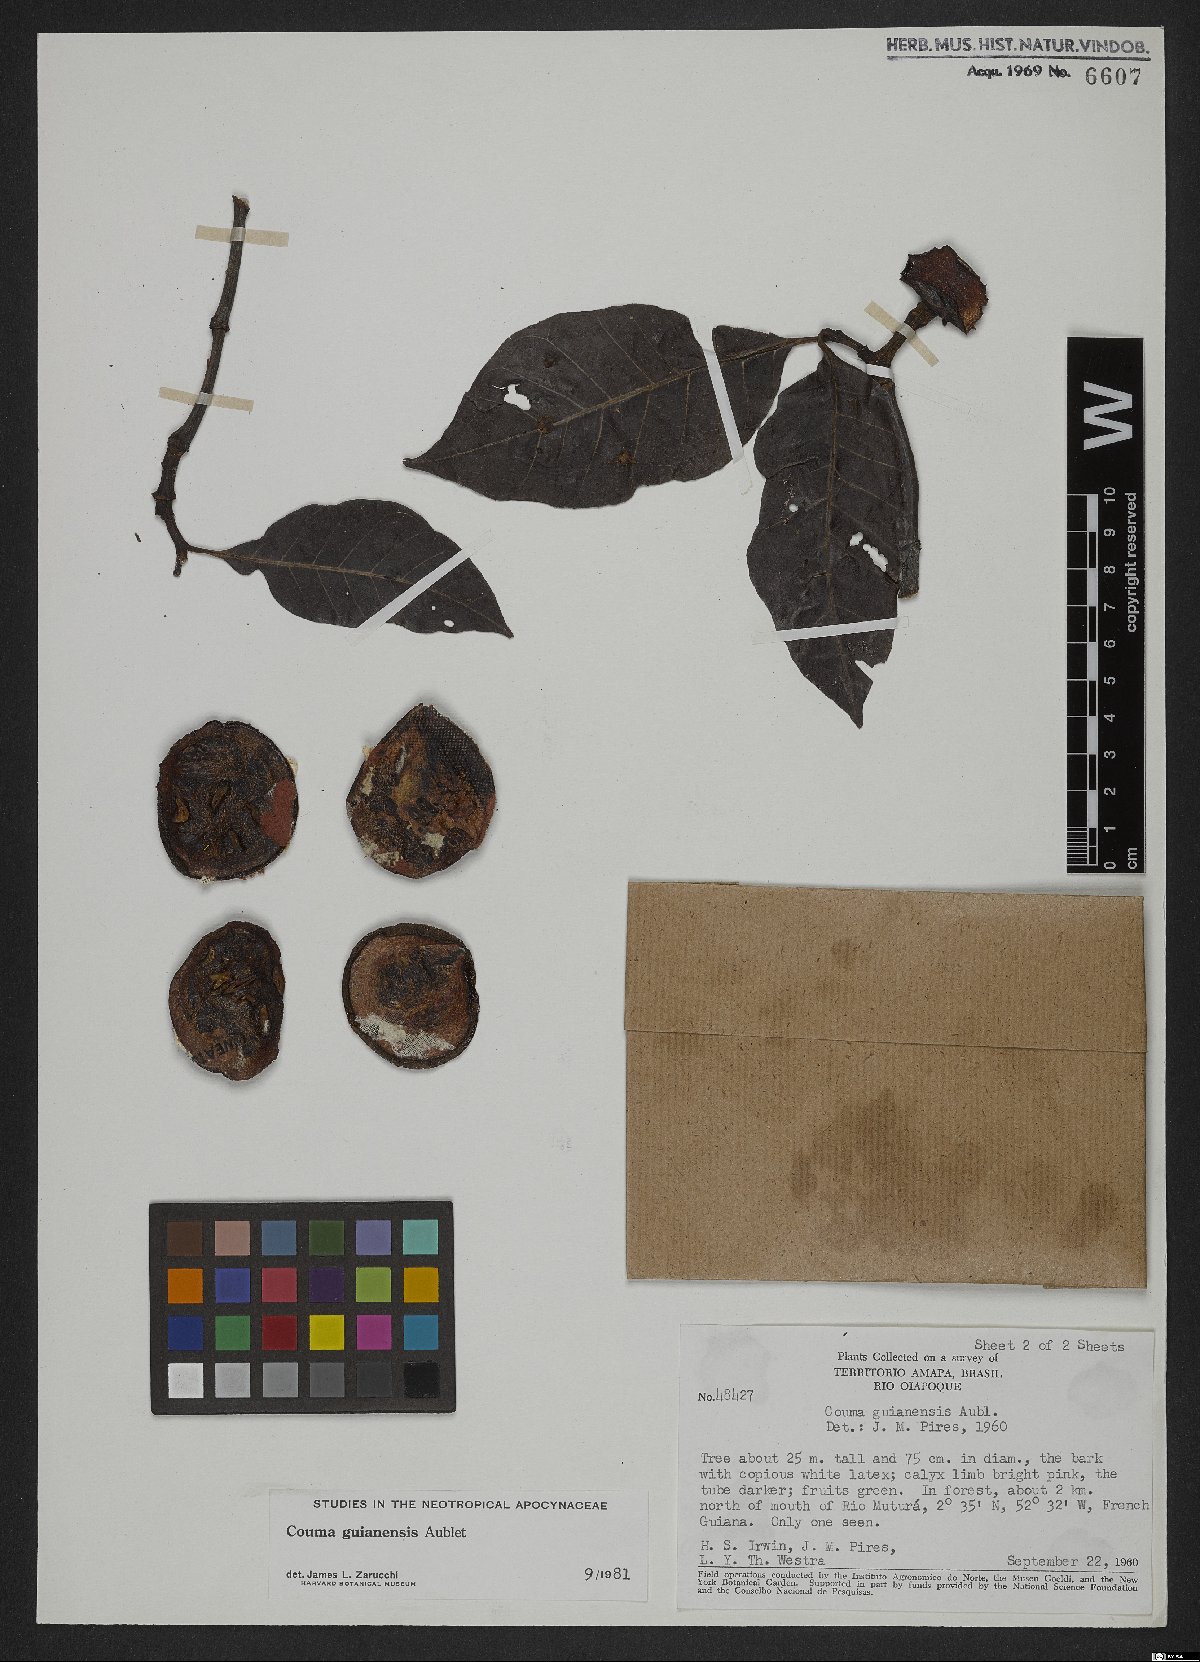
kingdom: Plantae
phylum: Tracheophyta
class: Magnoliopsida
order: Gentianales
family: Apocynaceae
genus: Couma
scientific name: Couma guianensis
